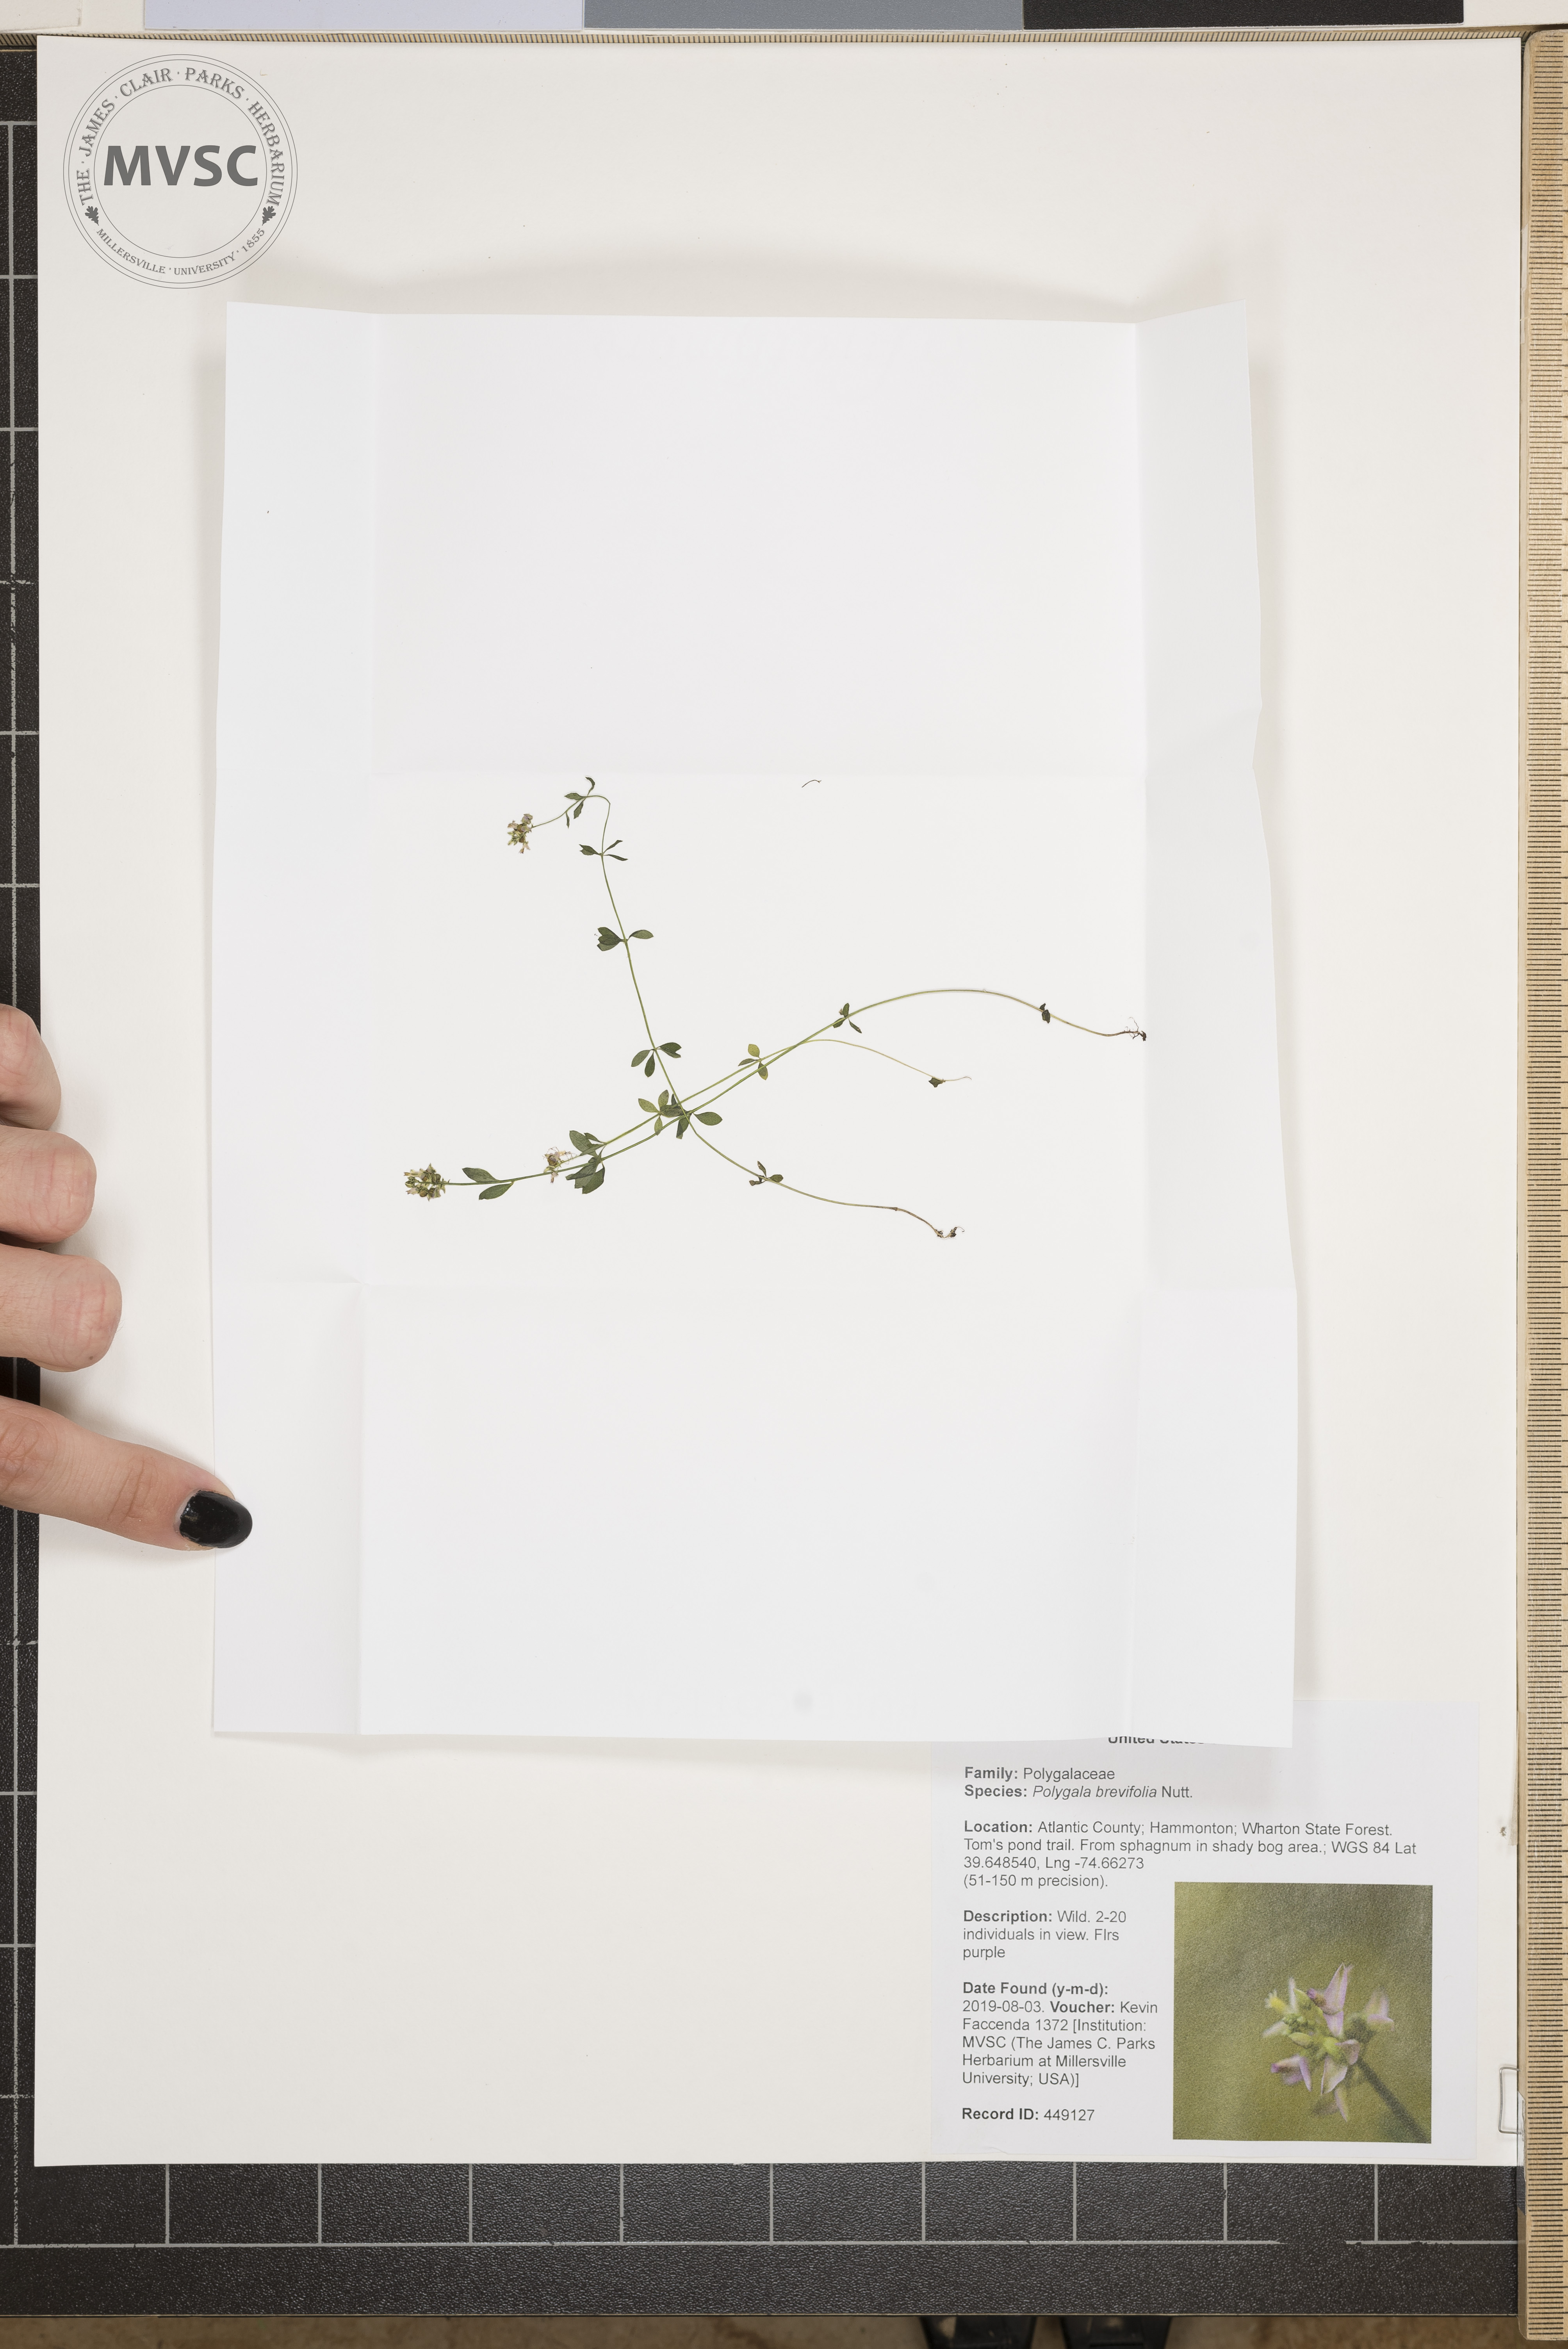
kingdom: Plantae
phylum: Tracheophyta
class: Magnoliopsida
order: Fabales
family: Polygalaceae
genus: Polygala
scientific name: Polygala brevifolia
